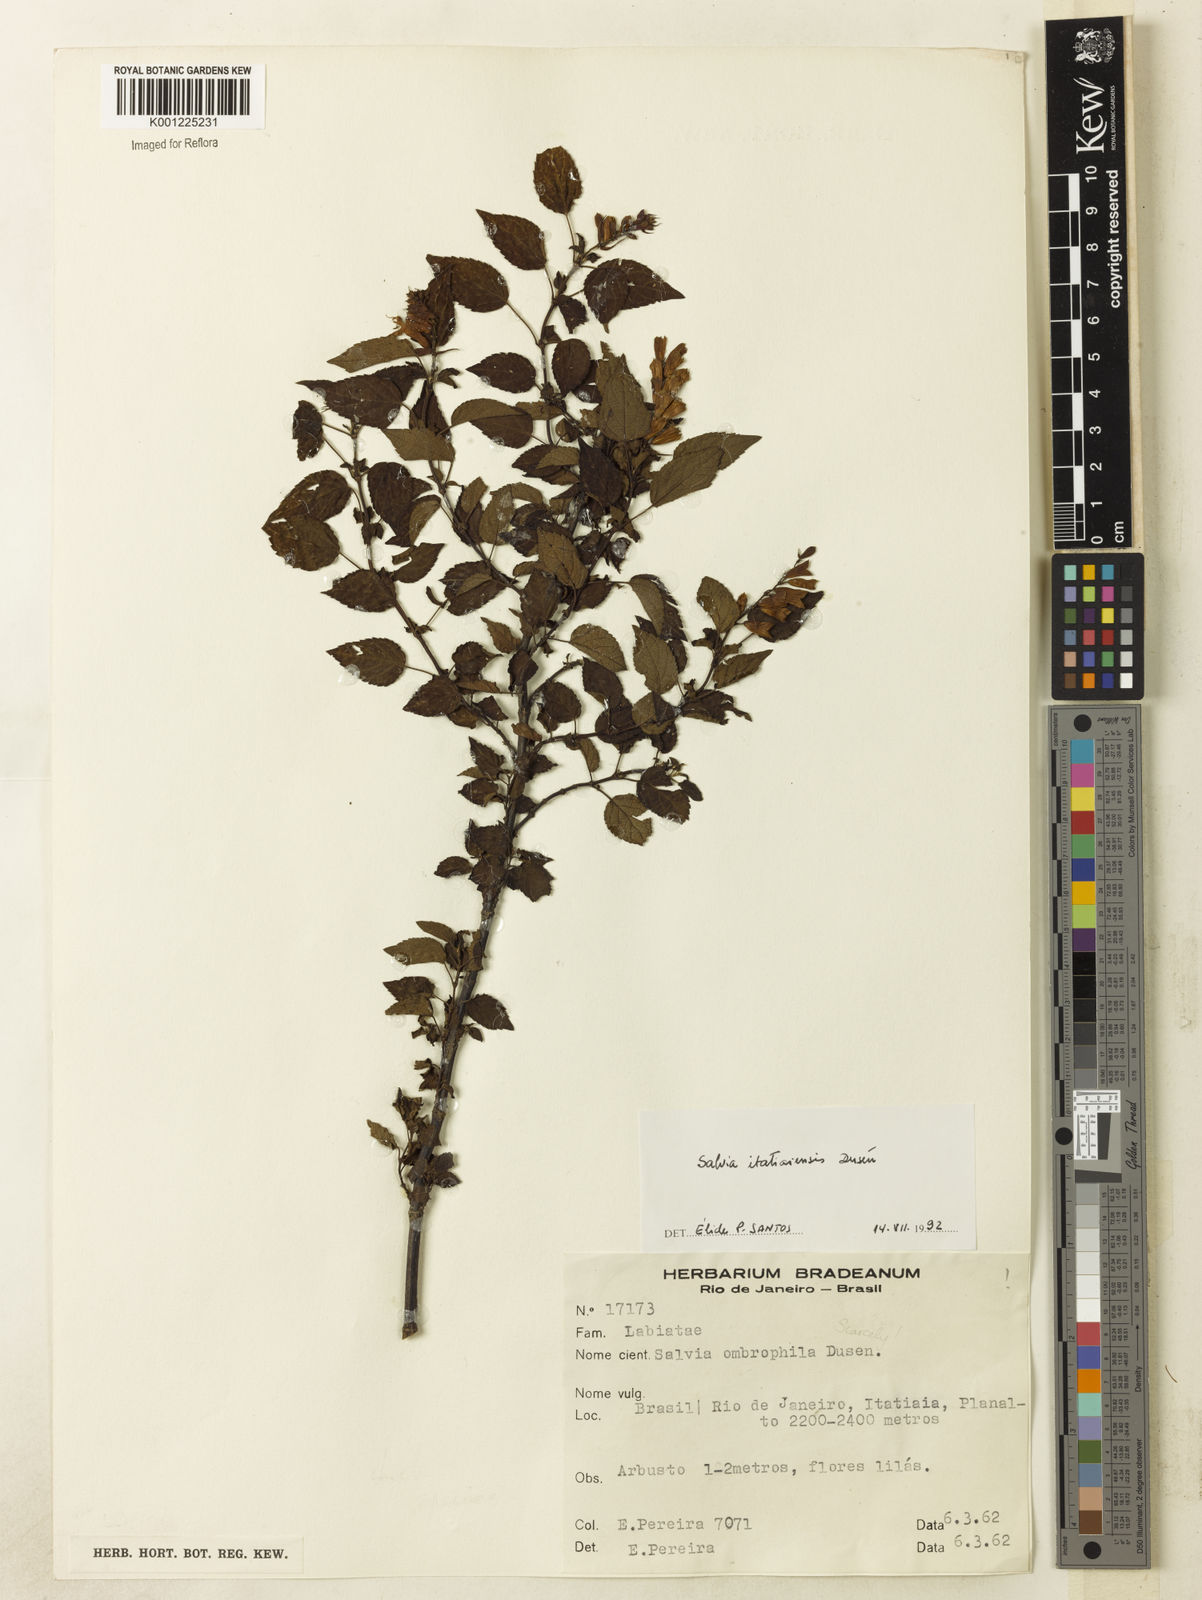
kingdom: Plantae
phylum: Tracheophyta
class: Magnoliopsida
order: Lamiales
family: Lamiaceae
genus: Salvia
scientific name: Salvia
